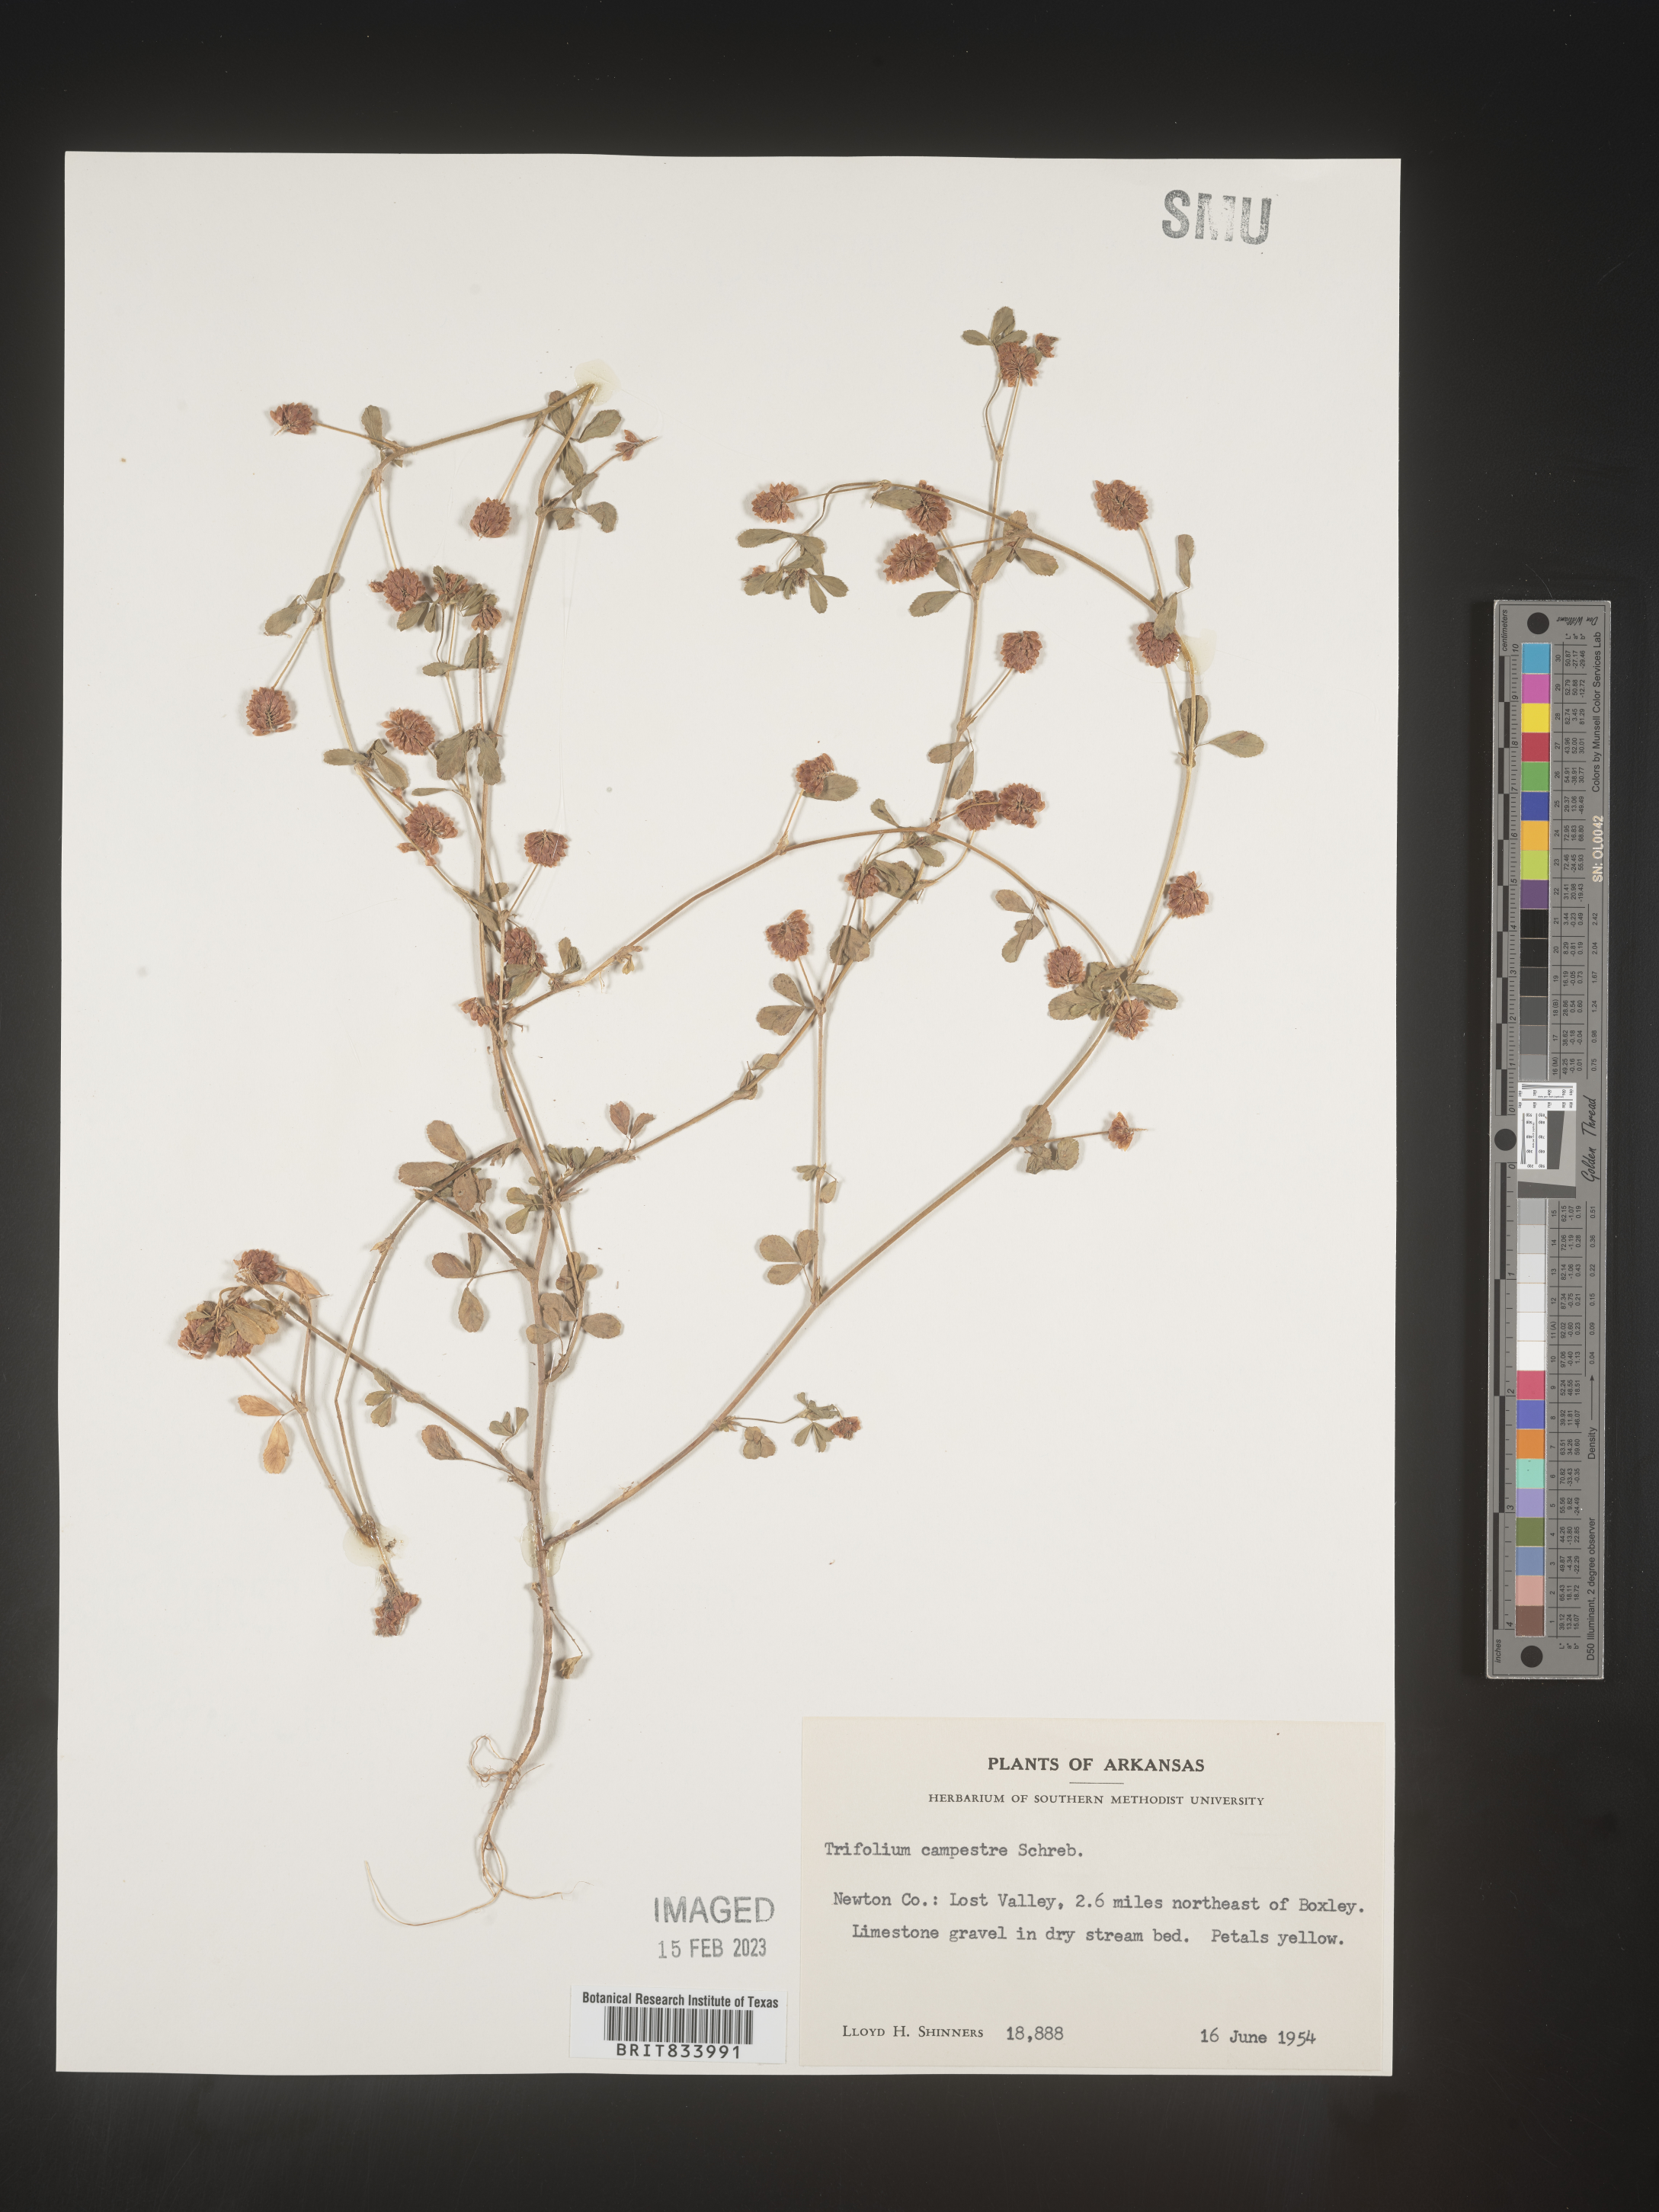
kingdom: Plantae
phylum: Tracheophyta
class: Magnoliopsida
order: Fabales
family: Fabaceae
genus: Trifolium
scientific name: Trifolium campestre
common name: Field clover
